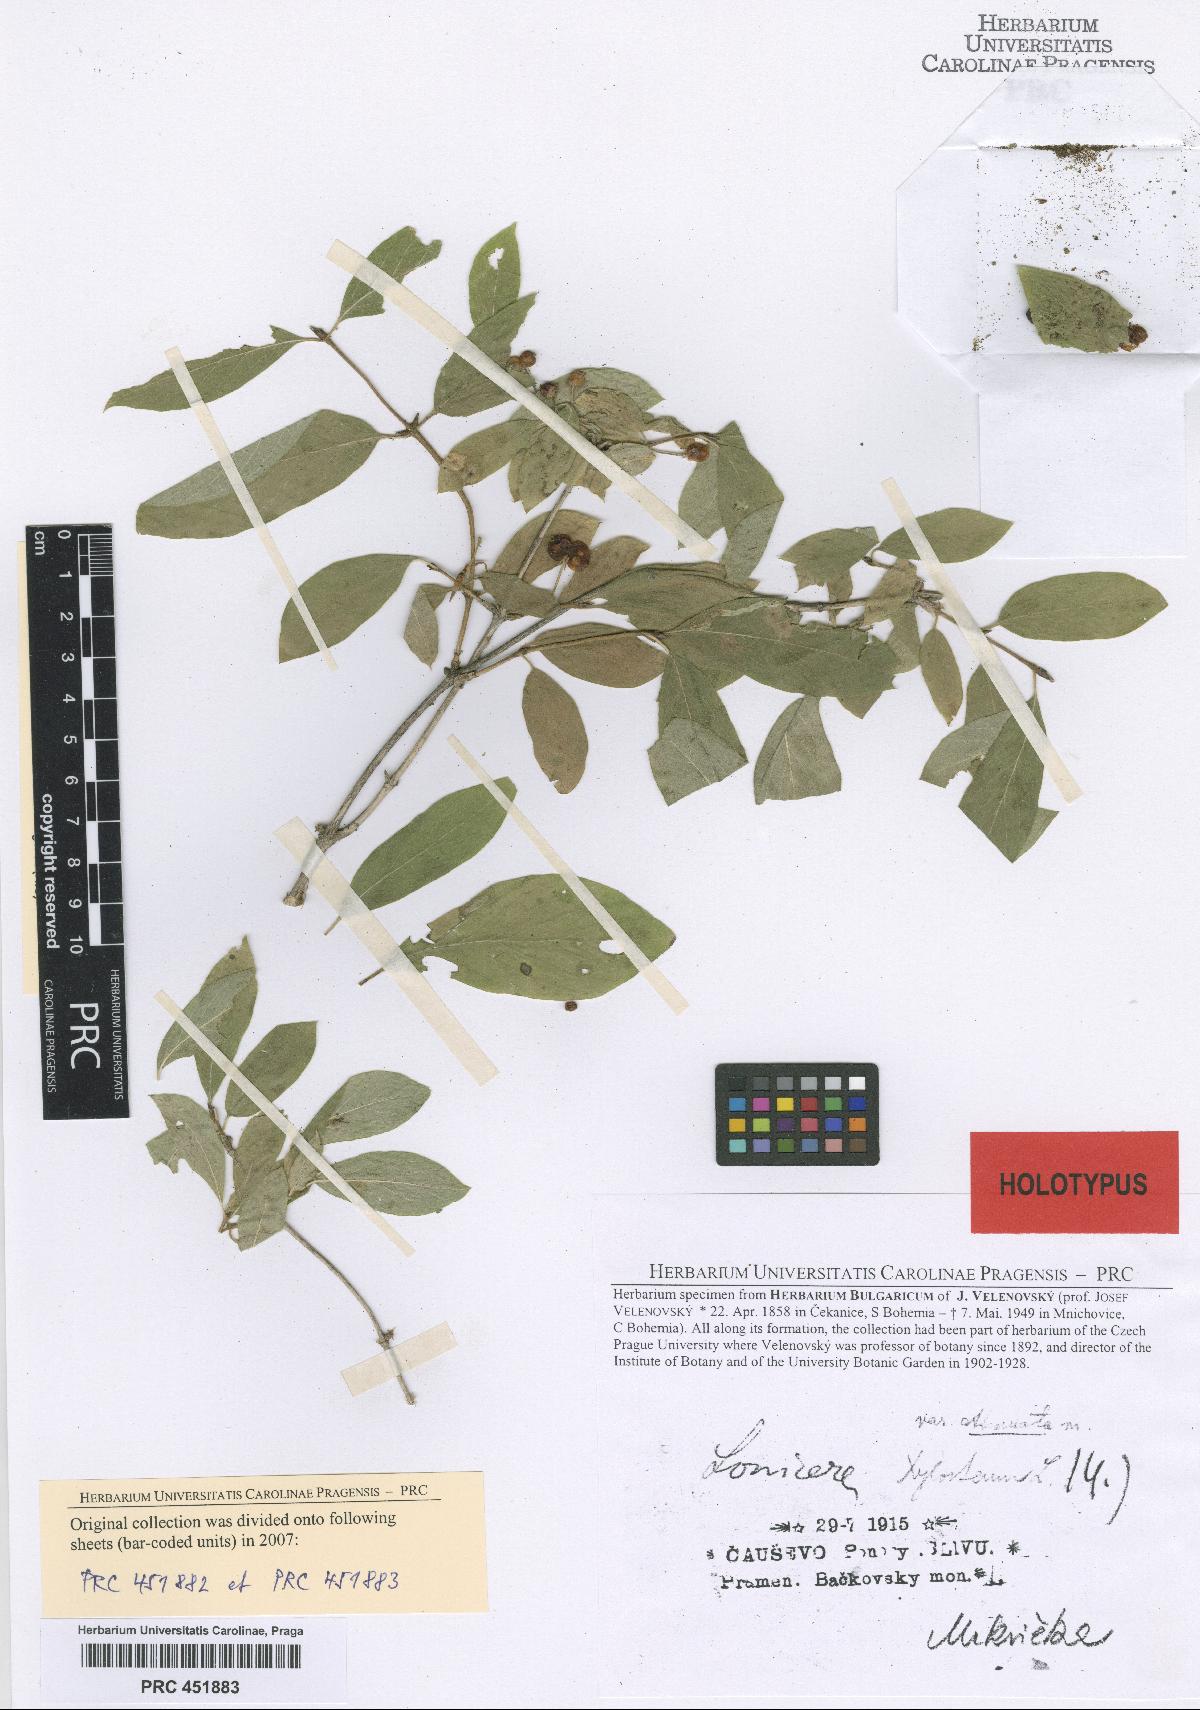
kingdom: Plantae
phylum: Tracheophyta
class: Magnoliopsida
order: Dipsacales
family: Caprifoliaceae
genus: Lonicera
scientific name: Lonicera xylosteum
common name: Fly honeysuckle
